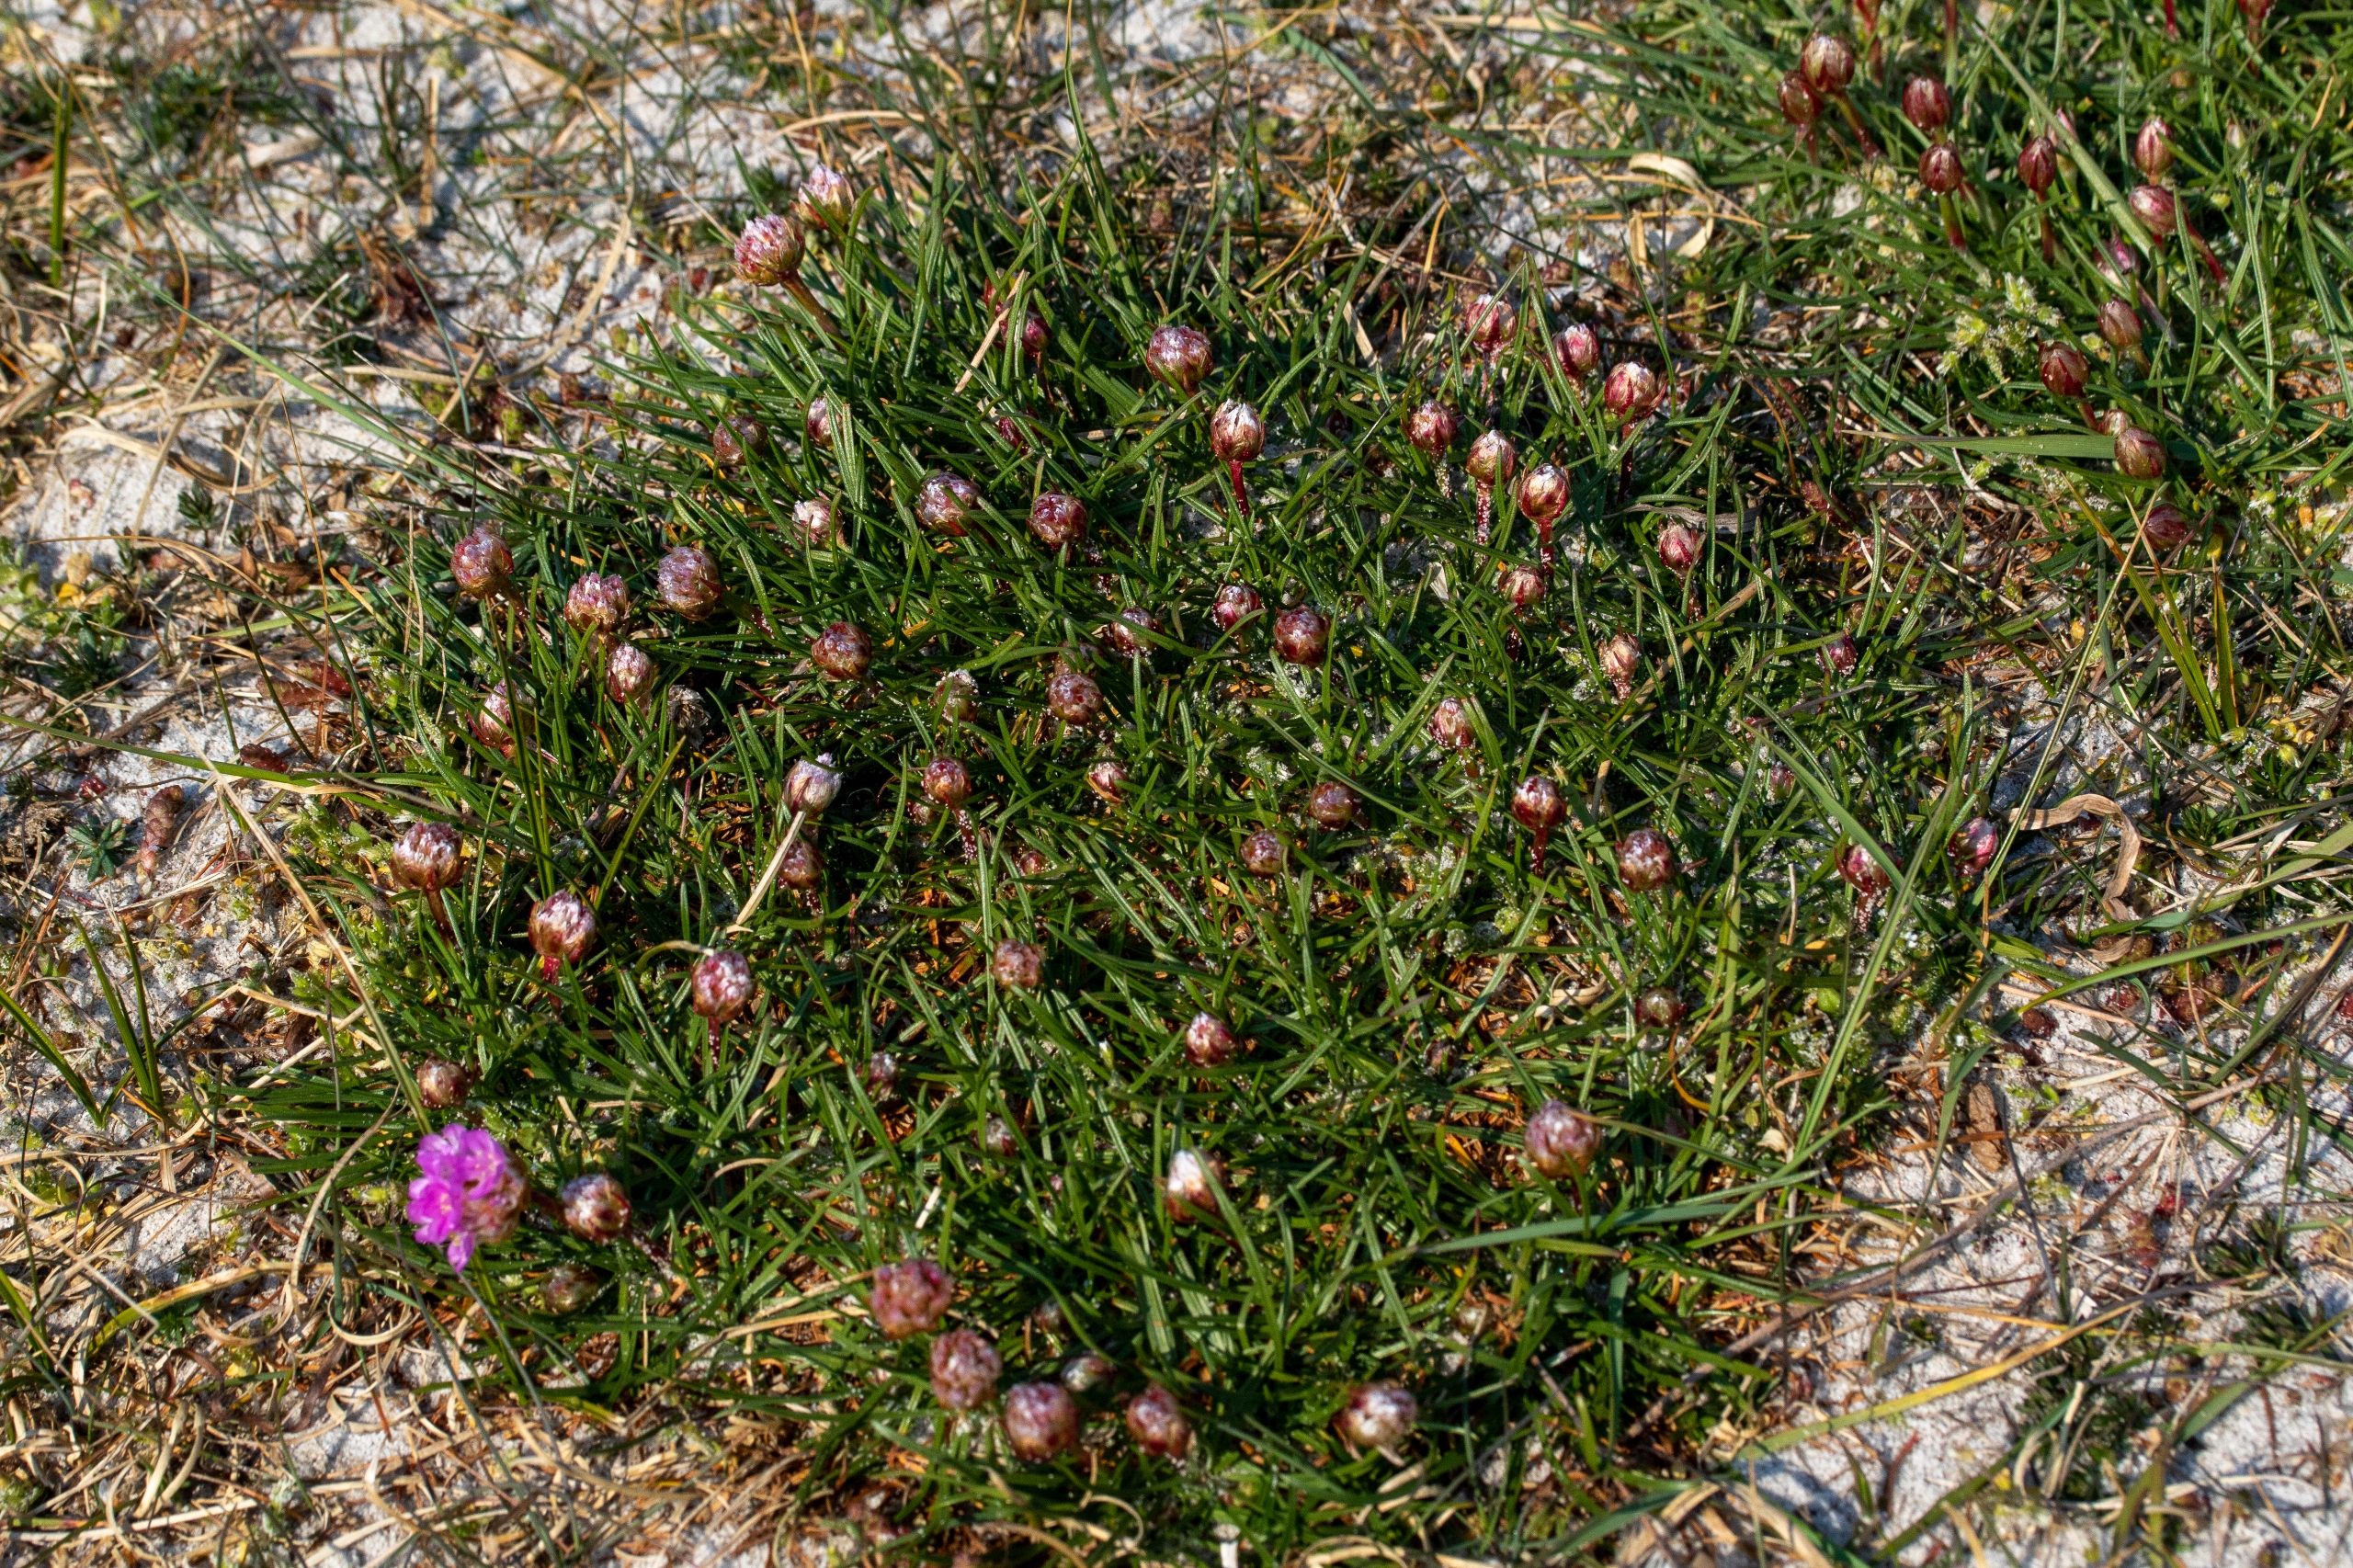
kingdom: Plantae
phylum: Tracheophyta
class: Magnoliopsida
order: Caryophyllales
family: Plumbaginaceae
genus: Armeria
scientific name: Armeria maritima
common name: Engelskgræs
